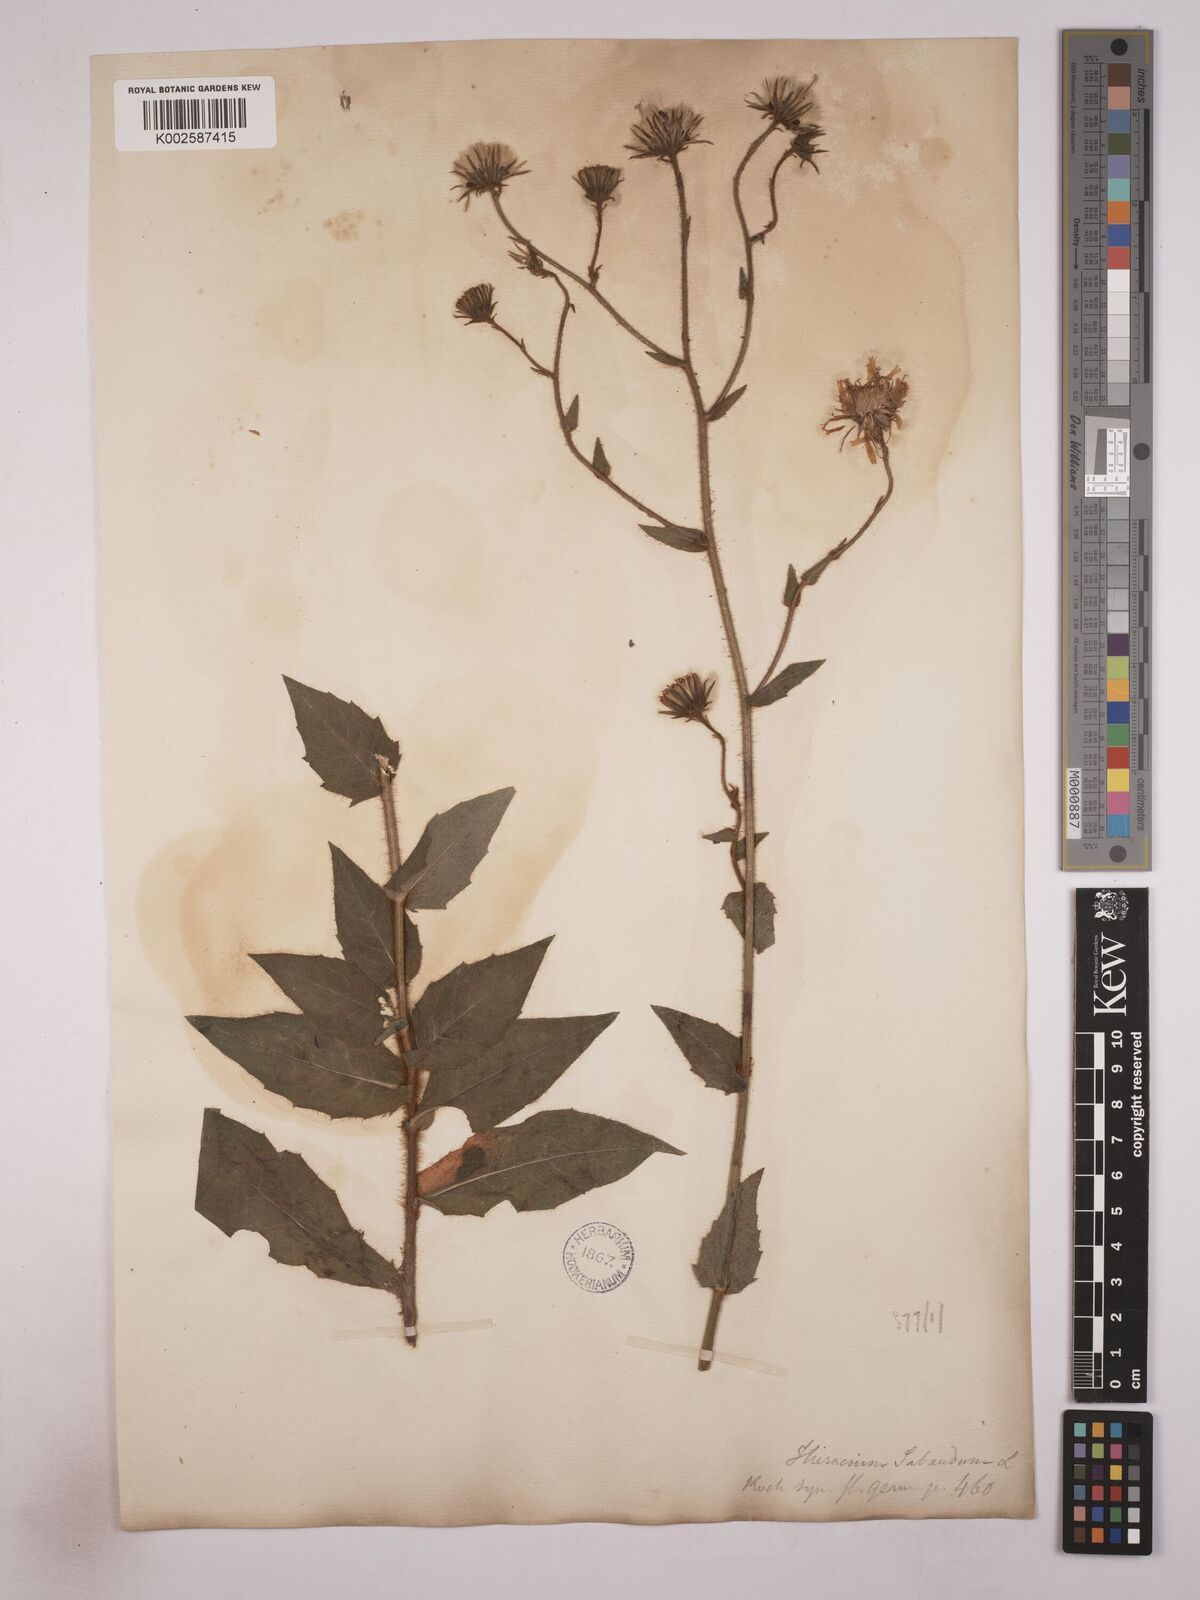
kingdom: Plantae
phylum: Tracheophyta
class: Magnoliopsida
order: Asterales
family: Asteraceae
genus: Hieracium
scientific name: Hieracium
